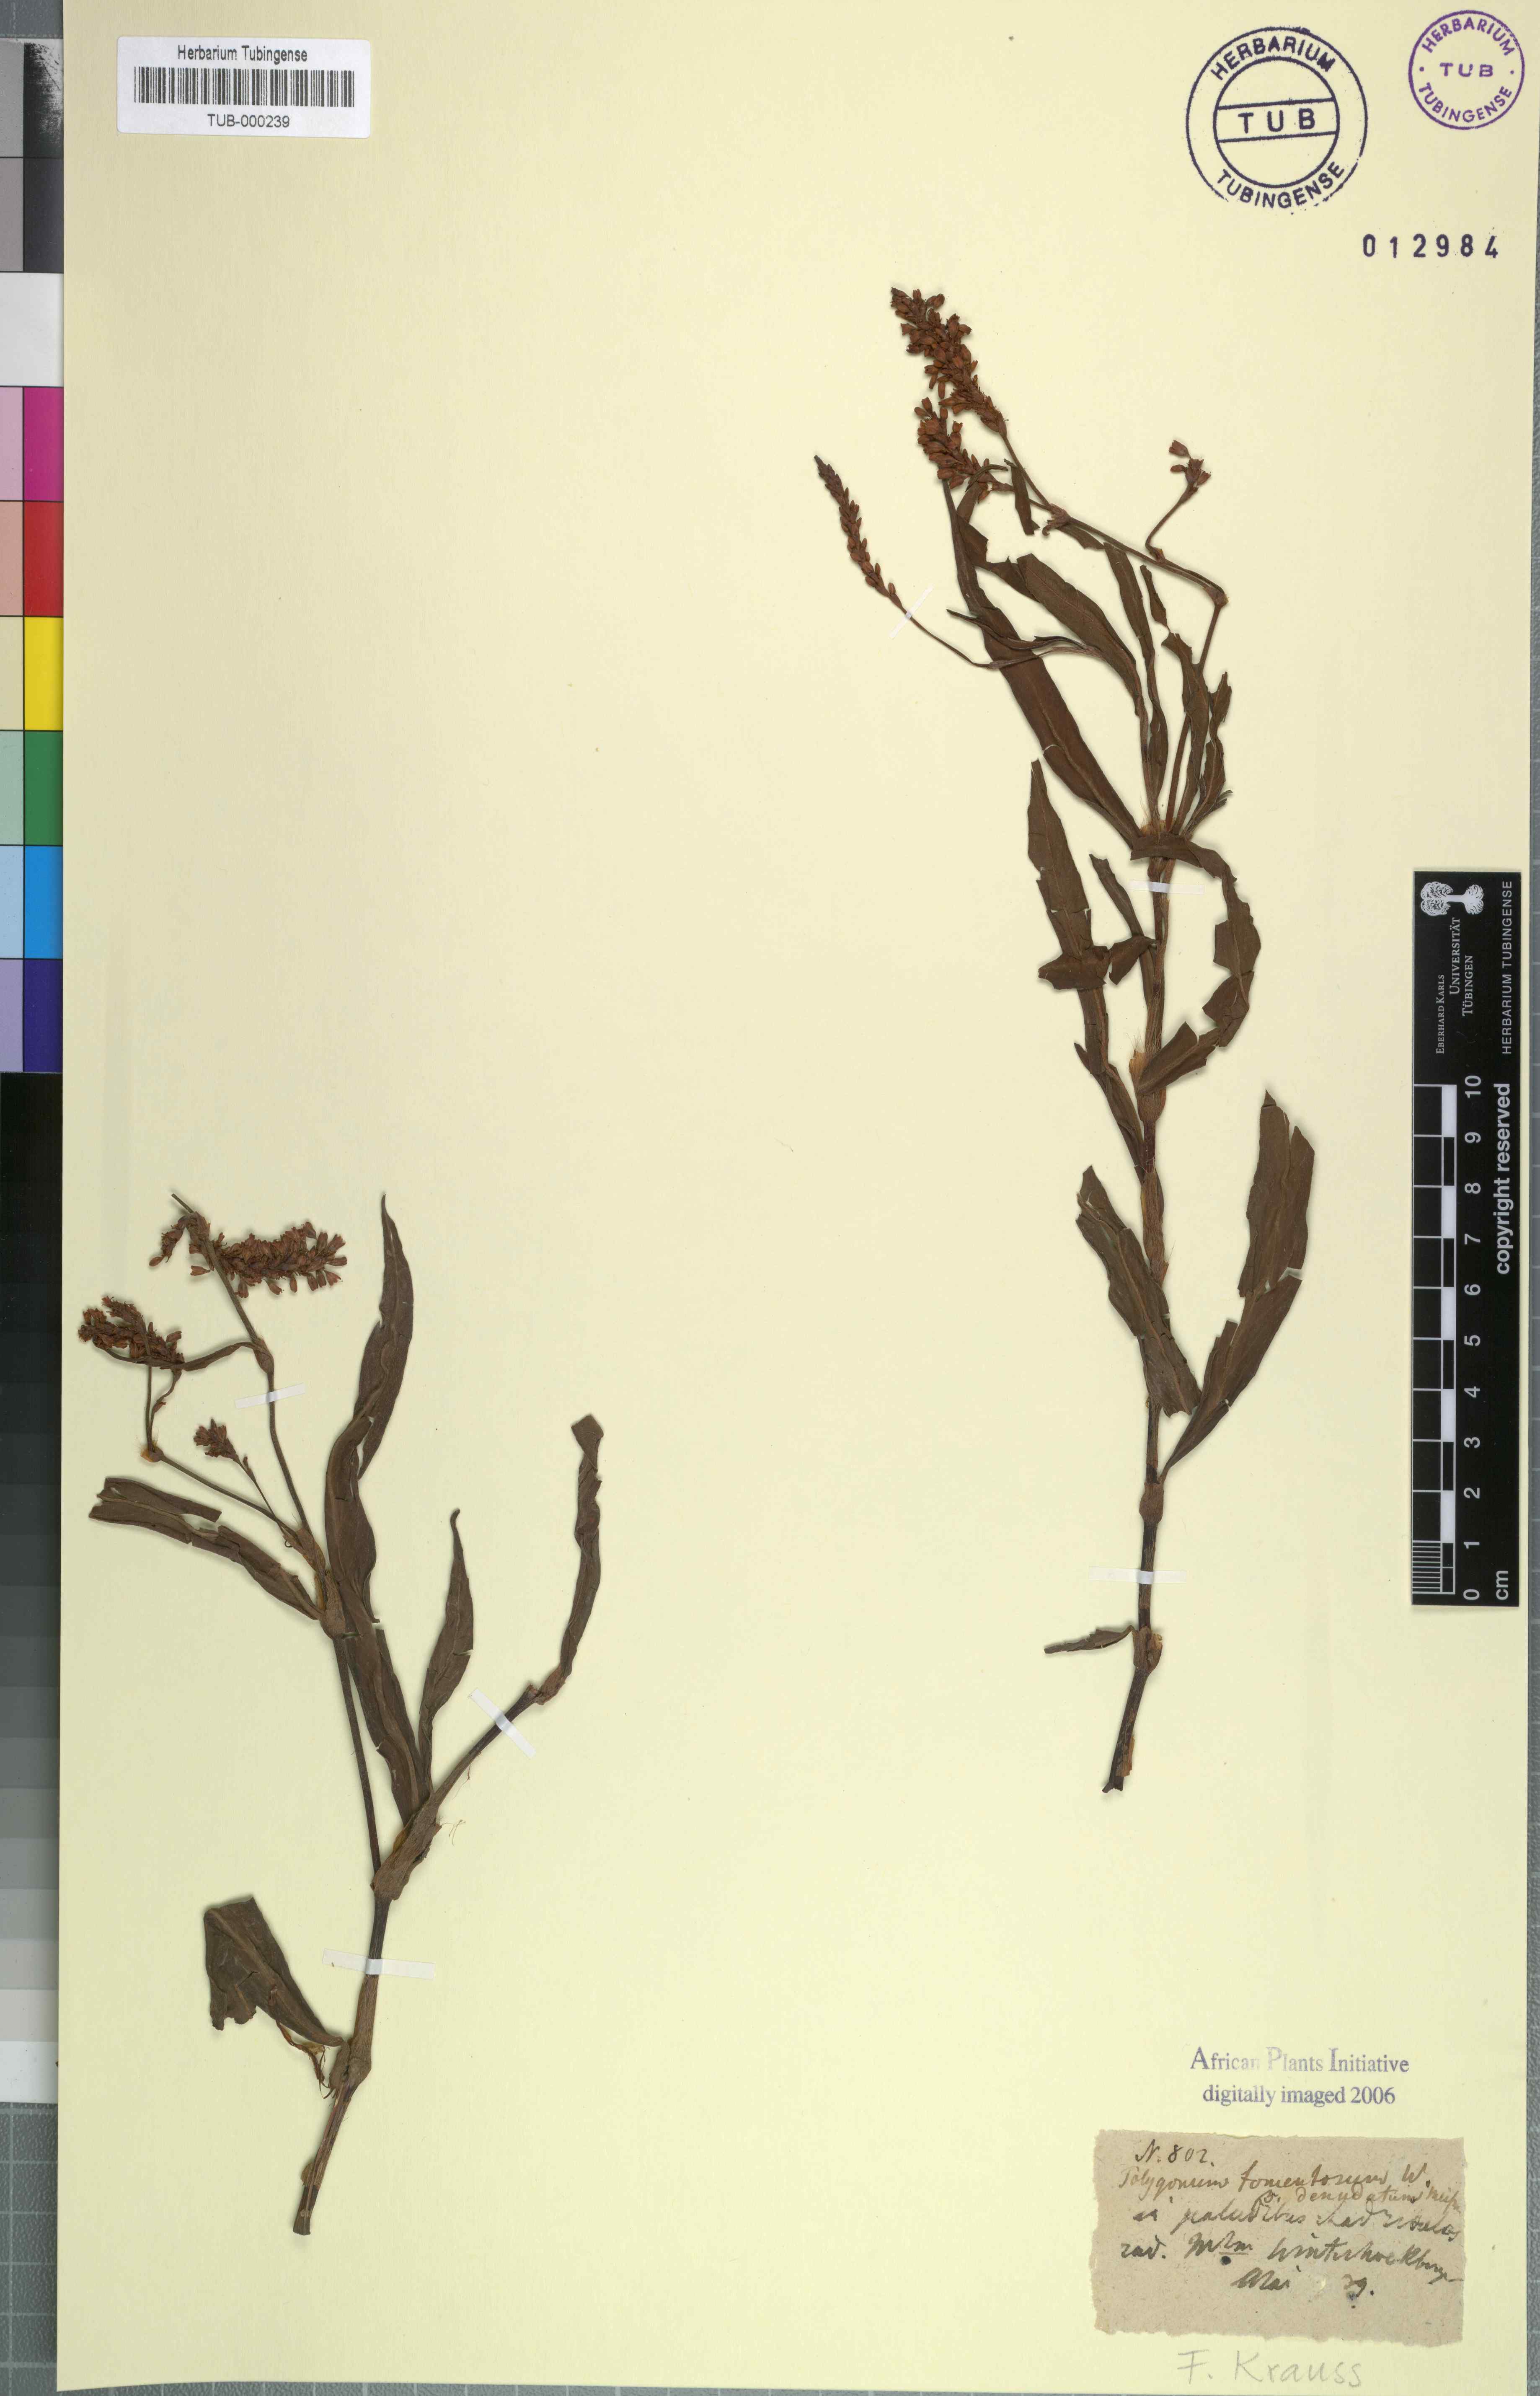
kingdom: Plantae
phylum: Tracheophyta
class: Magnoliopsida
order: Caryophyllales
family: Polygonaceae
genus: Persicaria
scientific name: Persicaria madagascariensis
